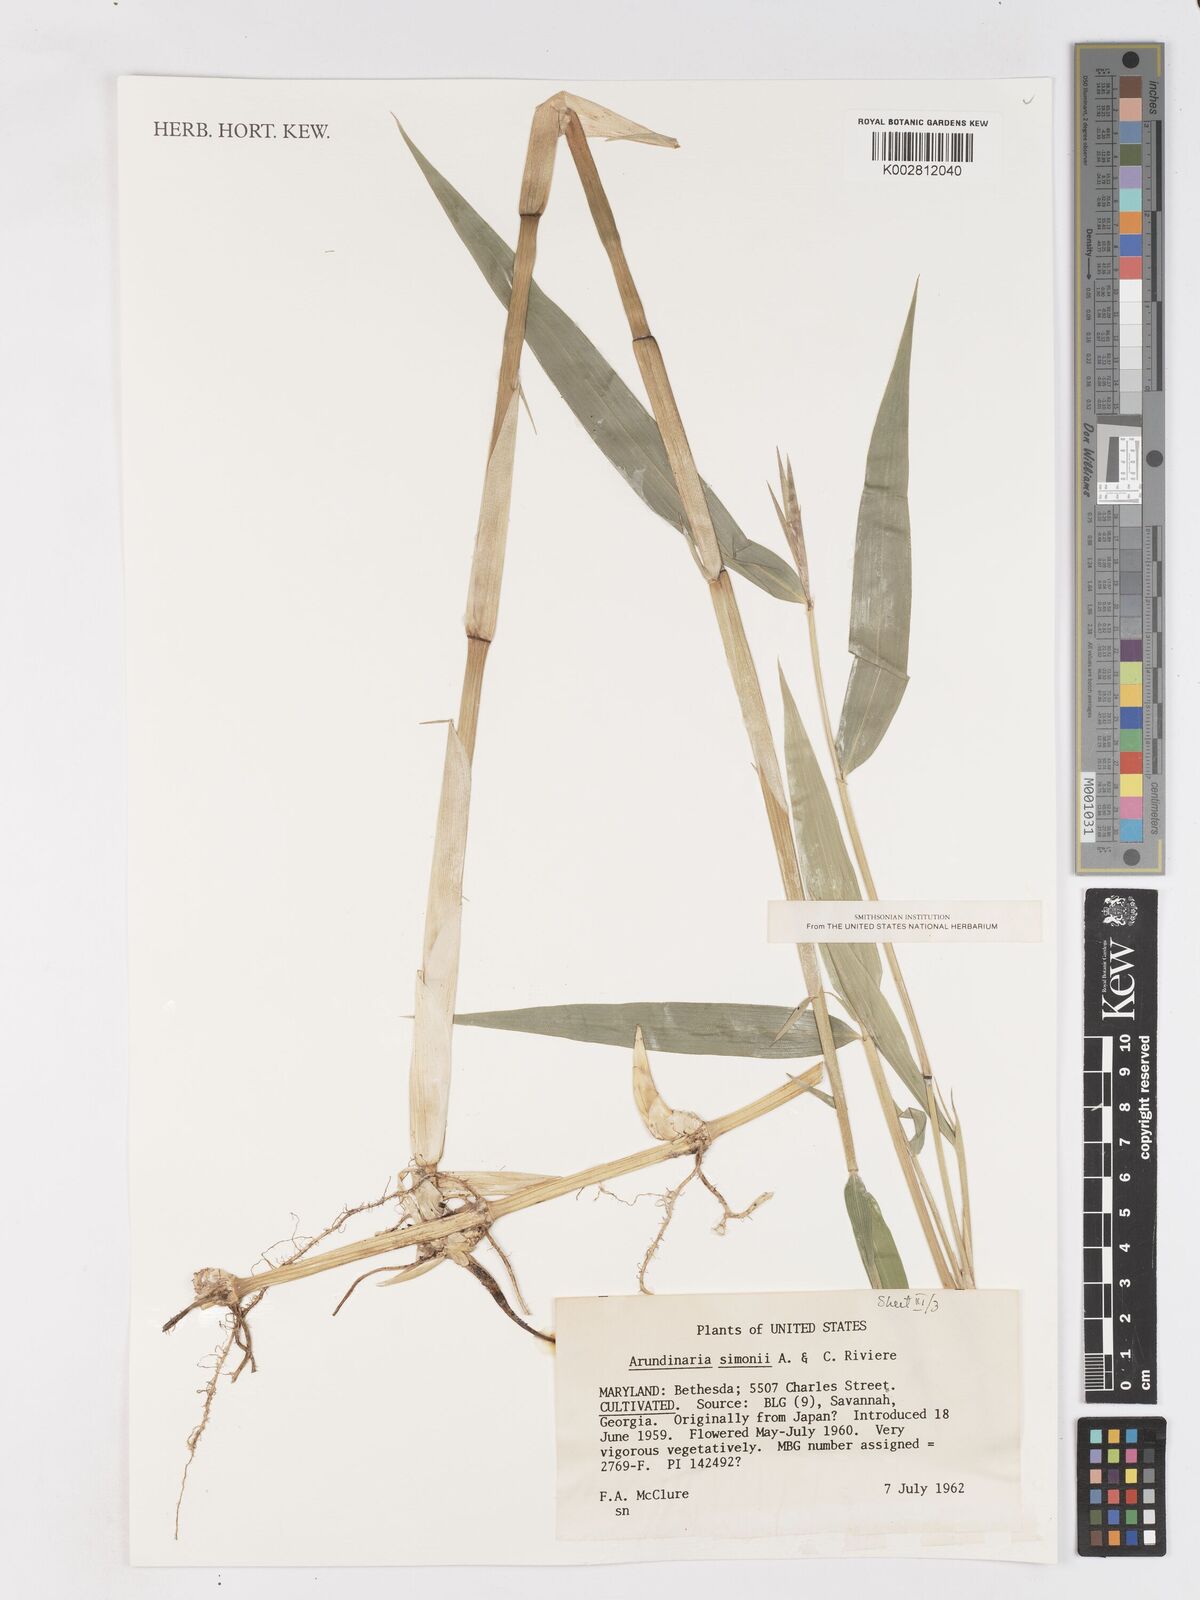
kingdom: Plantae
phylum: Tracheophyta
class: Liliopsida
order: Poales
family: Poaceae
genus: Pleioblastus
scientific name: Pleioblastus simonii
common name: Simon bamboo
